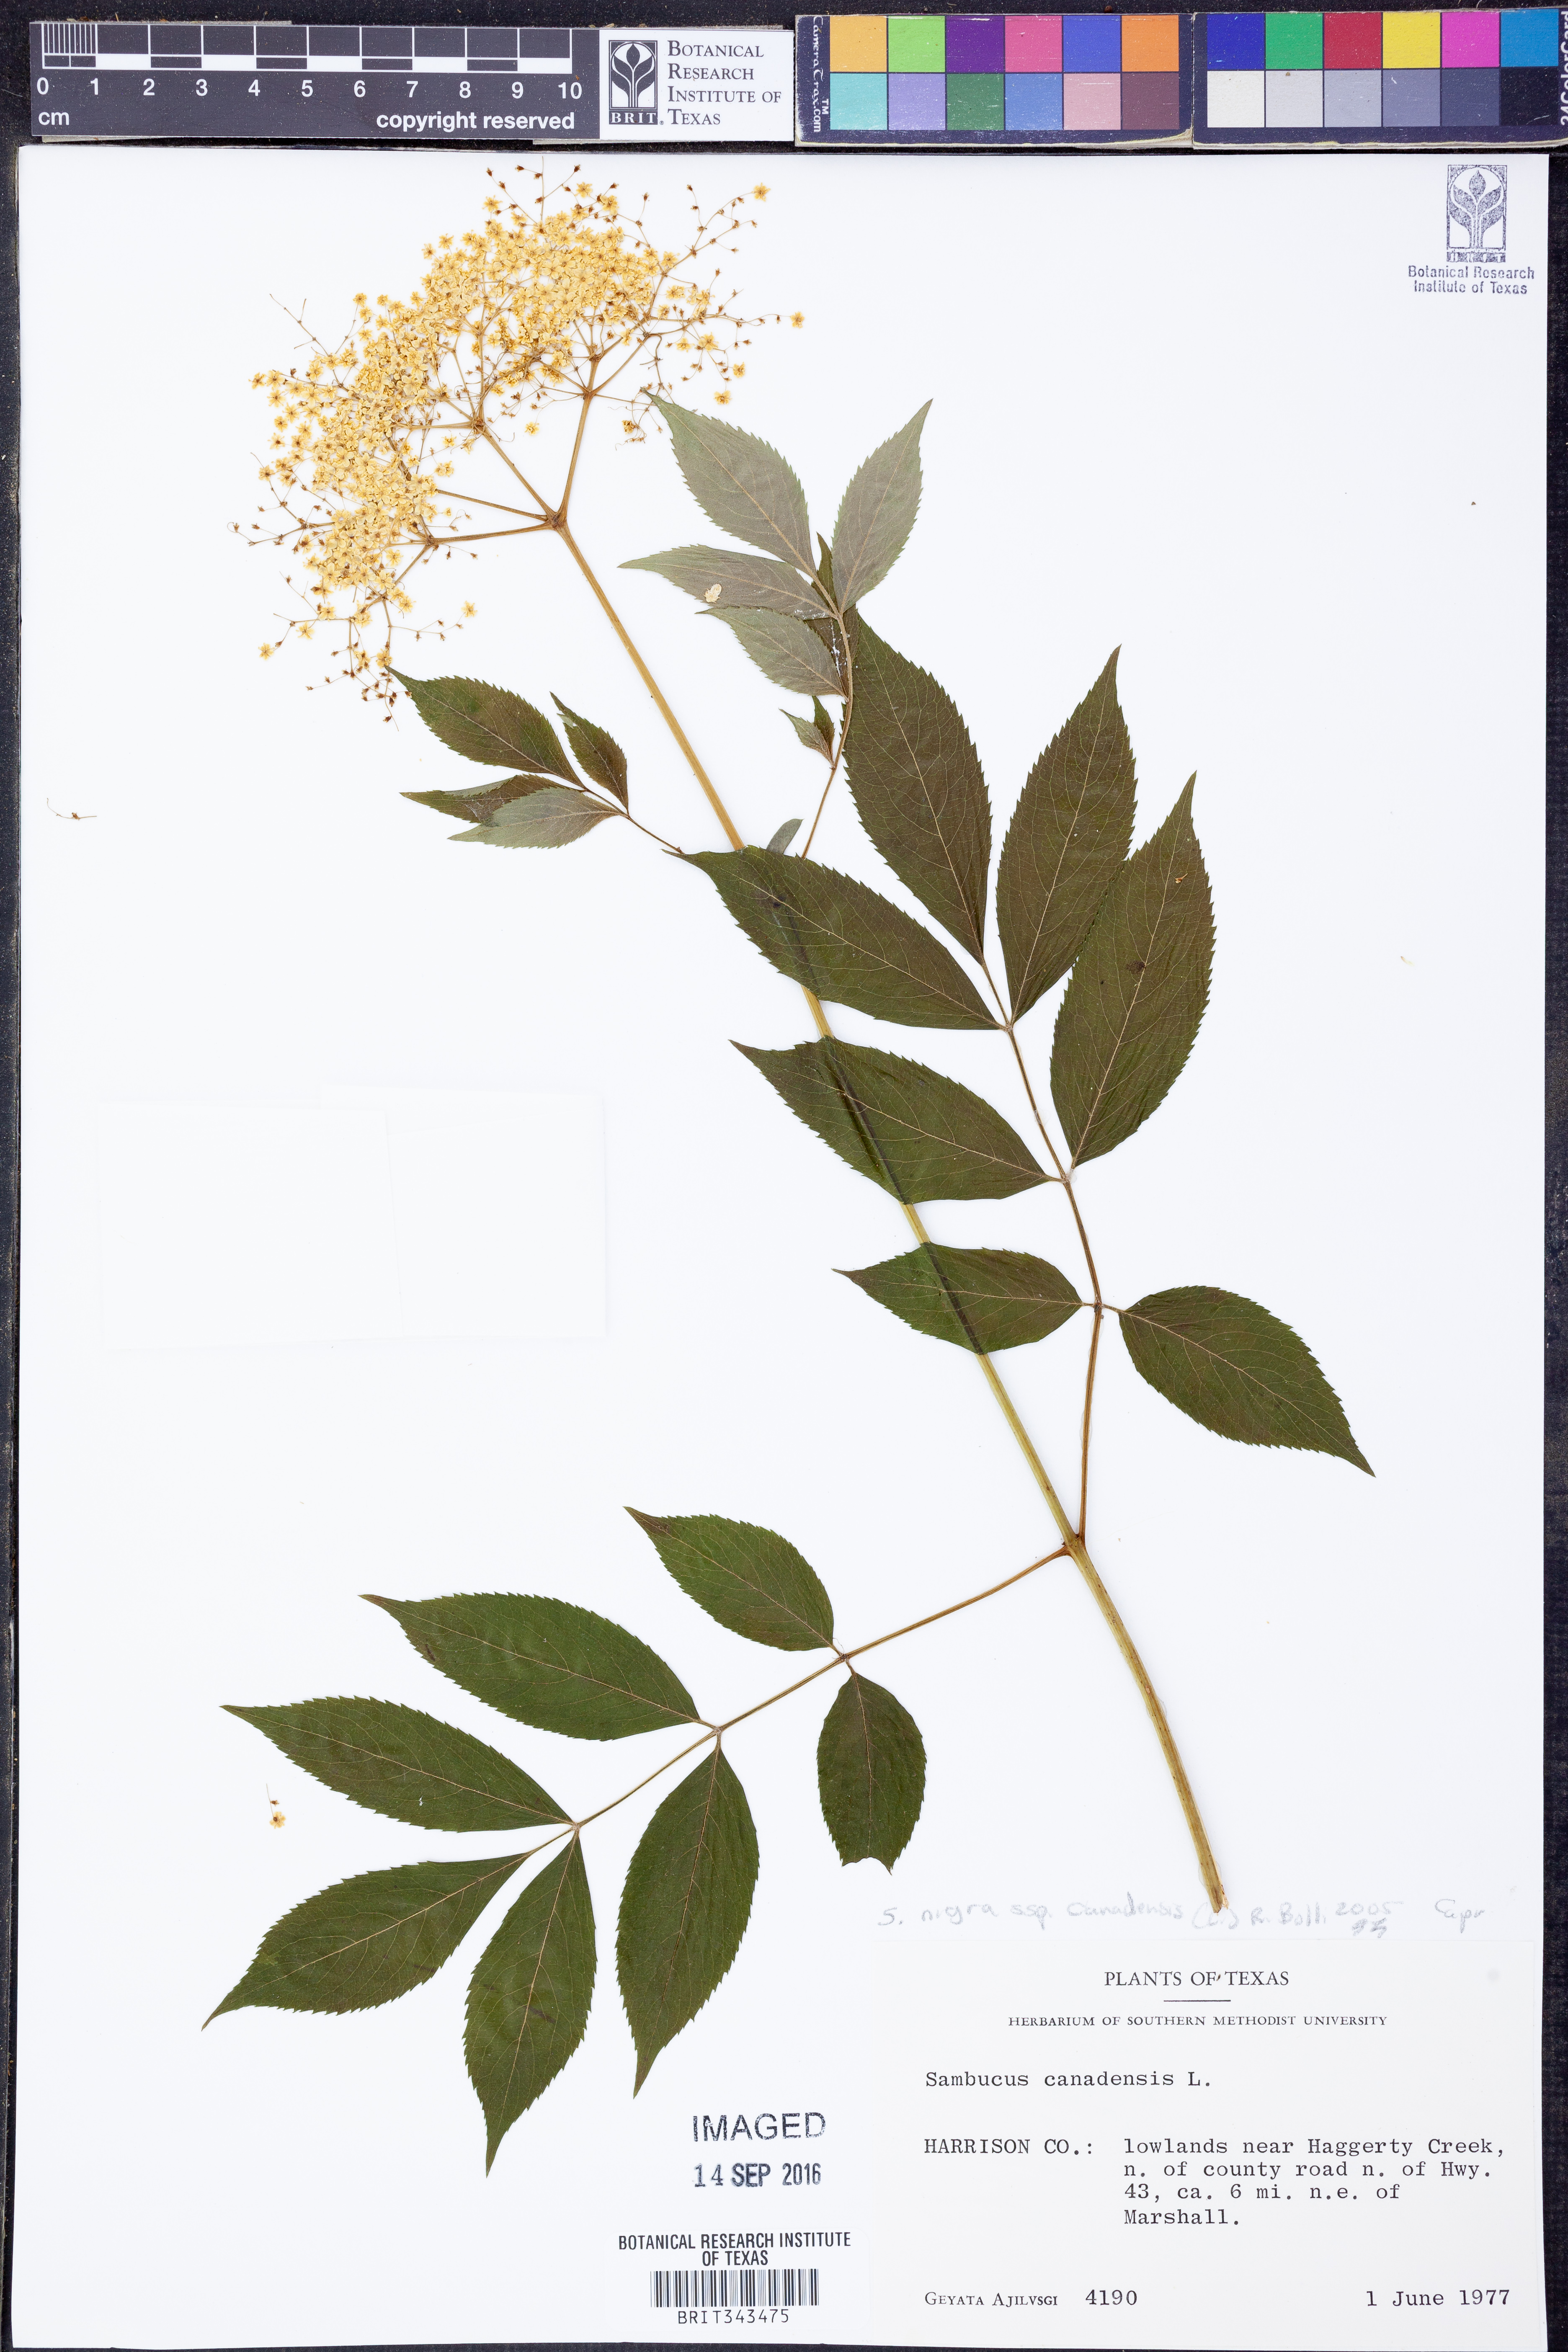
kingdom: Plantae
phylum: Tracheophyta
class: Magnoliopsida
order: Dipsacales
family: Viburnaceae
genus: Sambucus
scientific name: Sambucus canadensis
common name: American elder
